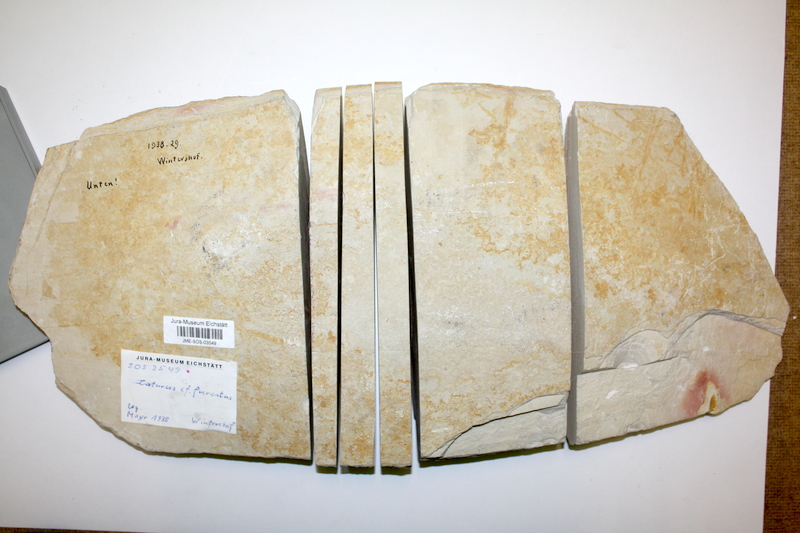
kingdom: Animalia
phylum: Chordata
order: Amiiformes
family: Caturidae
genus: Caturus
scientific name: Caturus furcatus
